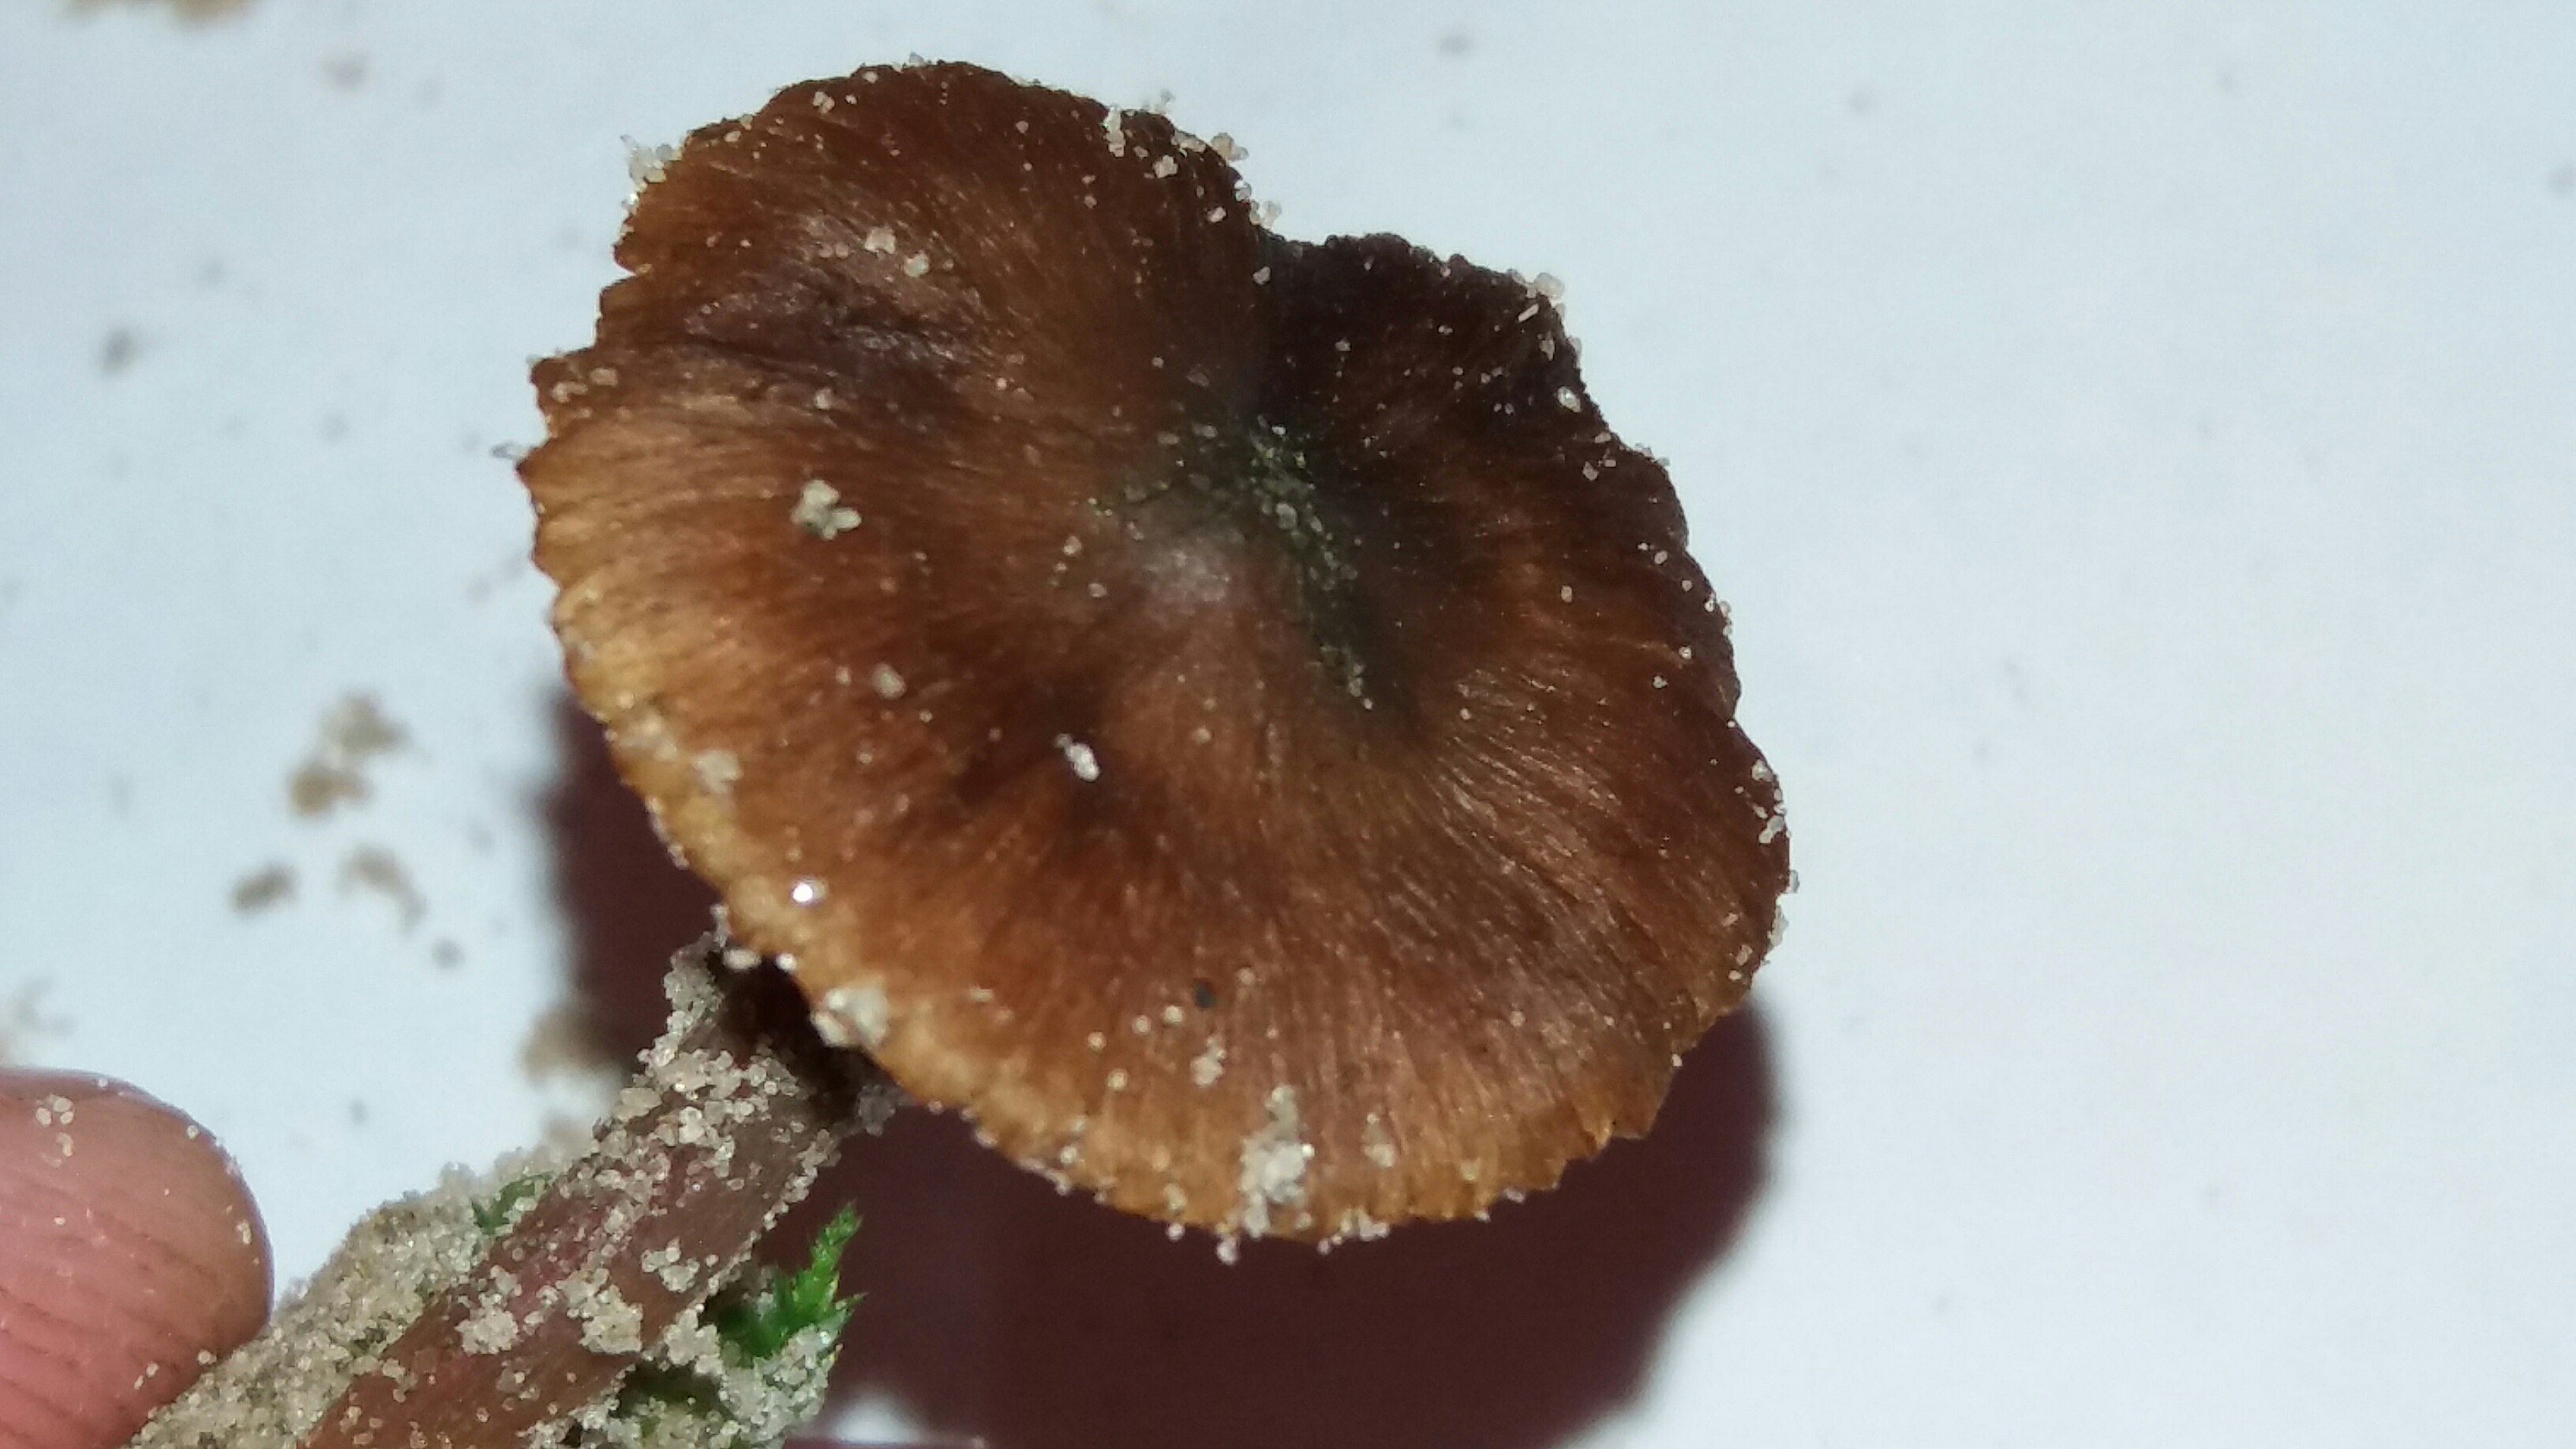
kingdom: Fungi
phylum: Basidiomycota
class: Agaricomycetes
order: Agaricales
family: Inocybaceae
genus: Inocybe
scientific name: Inocybe
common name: trævlhat
